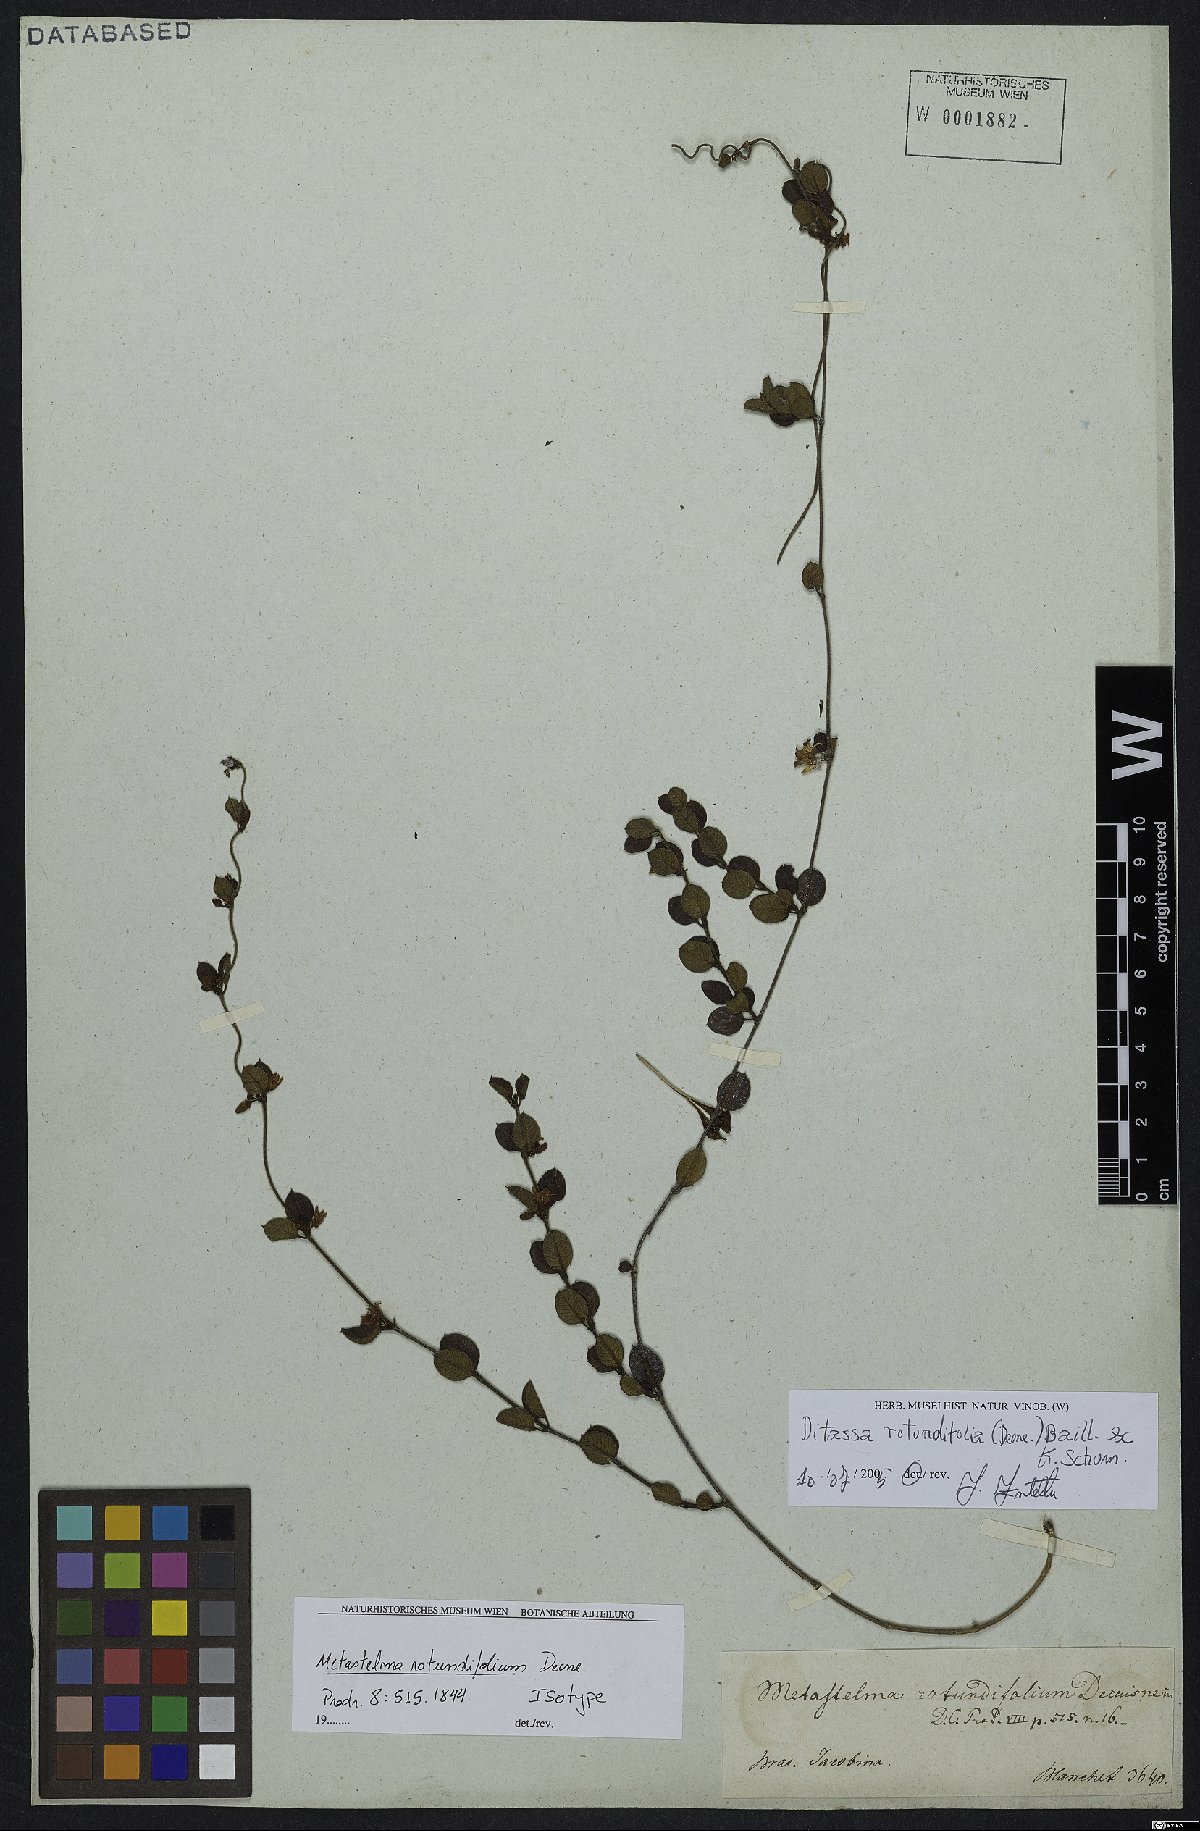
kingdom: Plantae
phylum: Tracheophyta
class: Magnoliopsida
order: Gentianales
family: Apocynaceae
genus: Ditassa
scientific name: Ditassa rotundifolia
